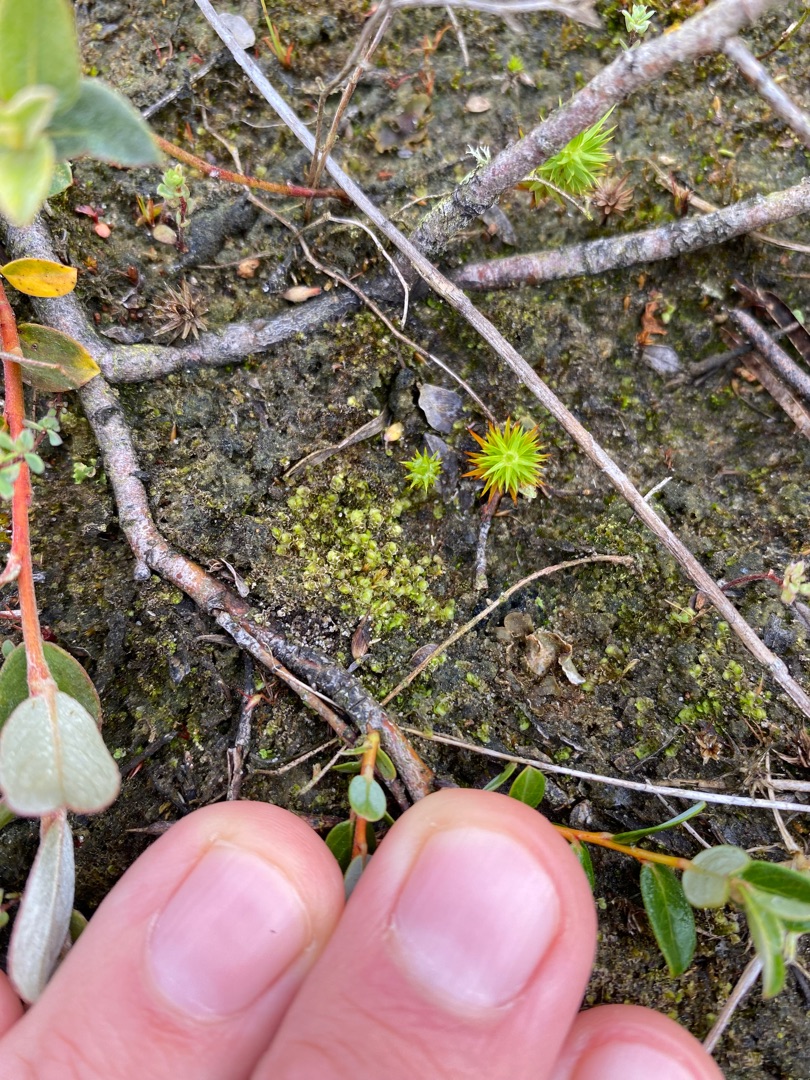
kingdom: Plantae
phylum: Marchantiophyta
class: Jungermanniopsida
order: Jungermanniales
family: Scapaniaceae
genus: Scapania
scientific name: Scapania
